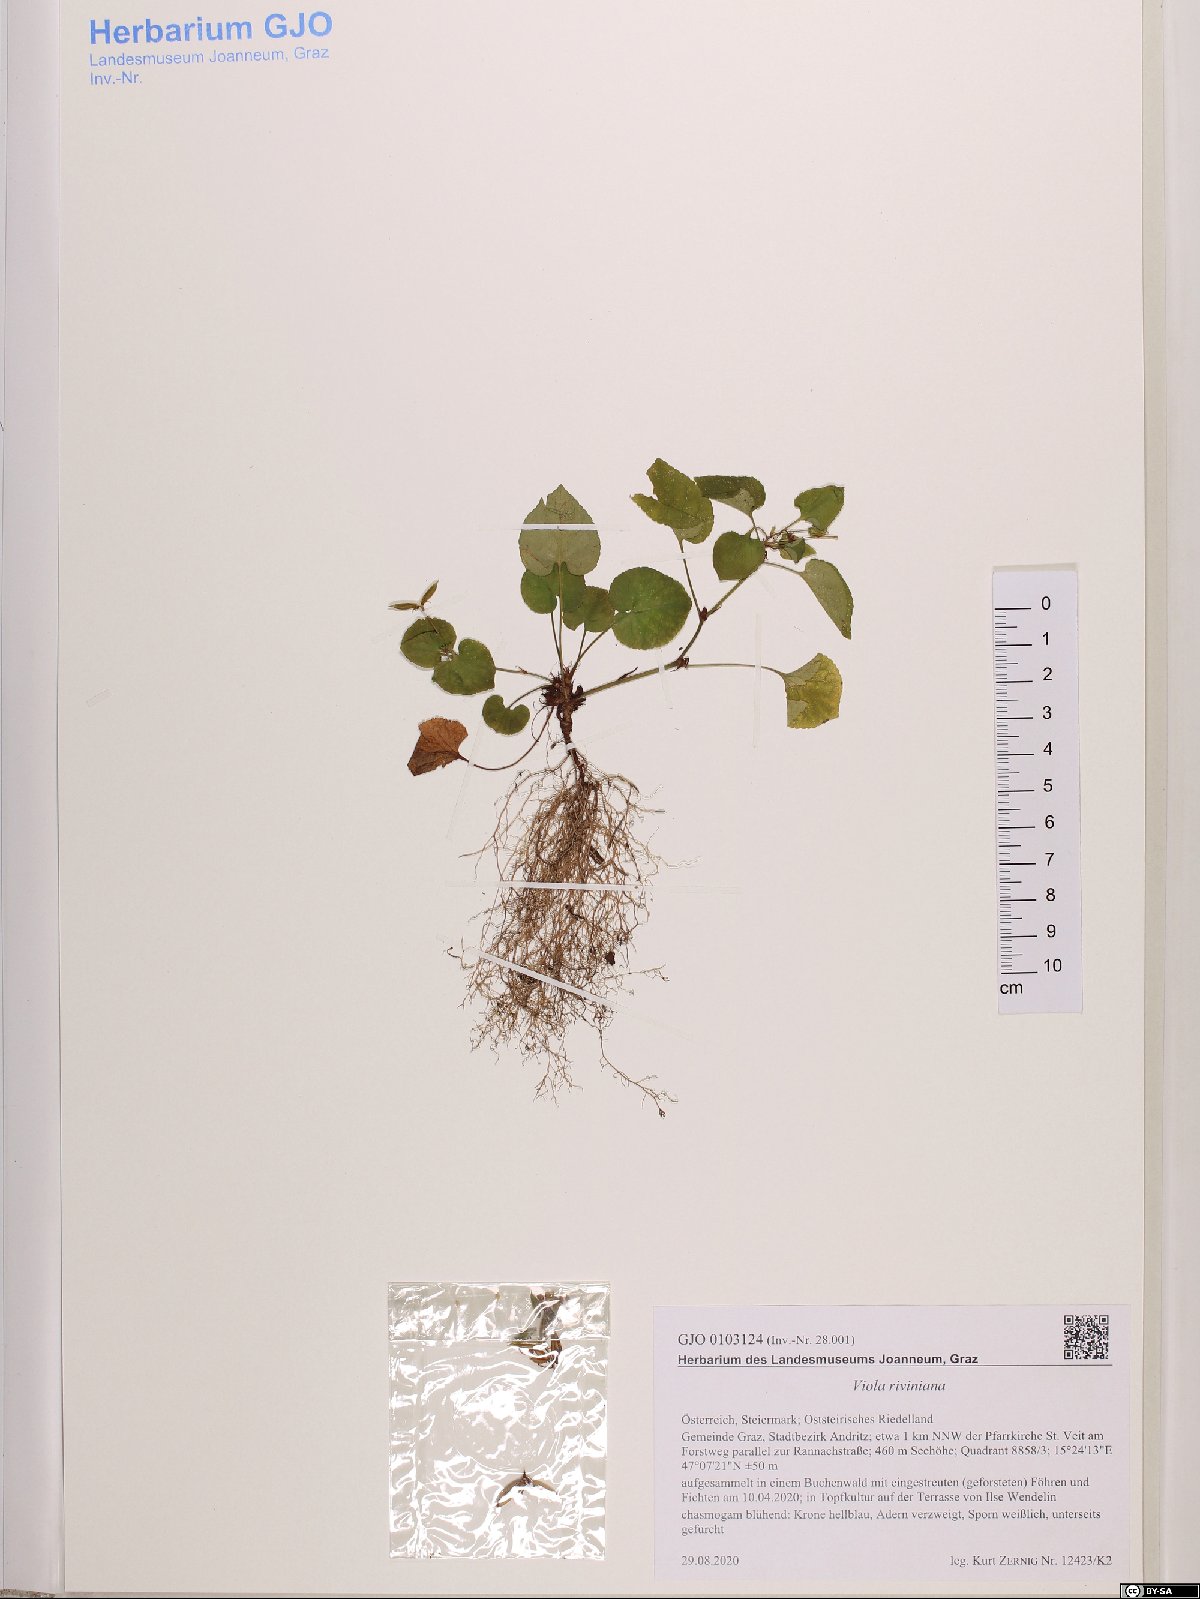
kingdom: Plantae
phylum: Tracheophyta
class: Magnoliopsida
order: Malpighiales
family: Violaceae
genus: Viola
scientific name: Viola riviniana
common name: Common dog-violet
